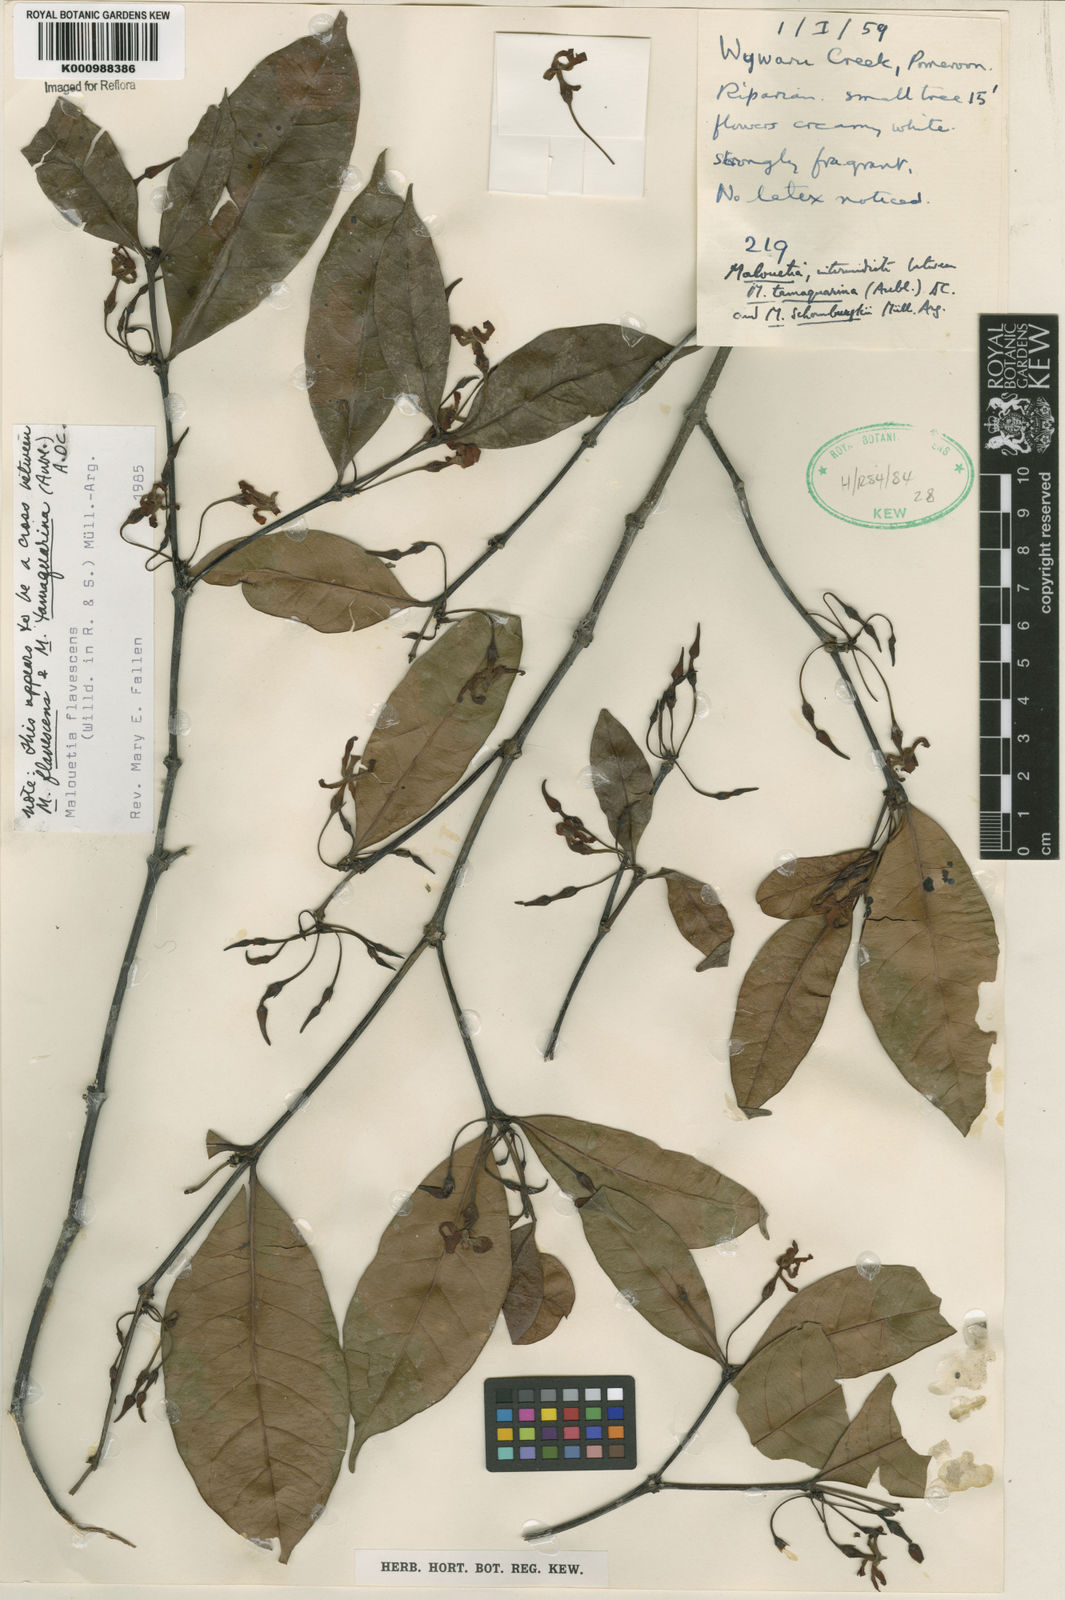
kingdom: Plantae
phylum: Tracheophyta
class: Magnoliopsida
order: Gentianales
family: Apocynaceae
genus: Malouetia
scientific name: Malouetia
